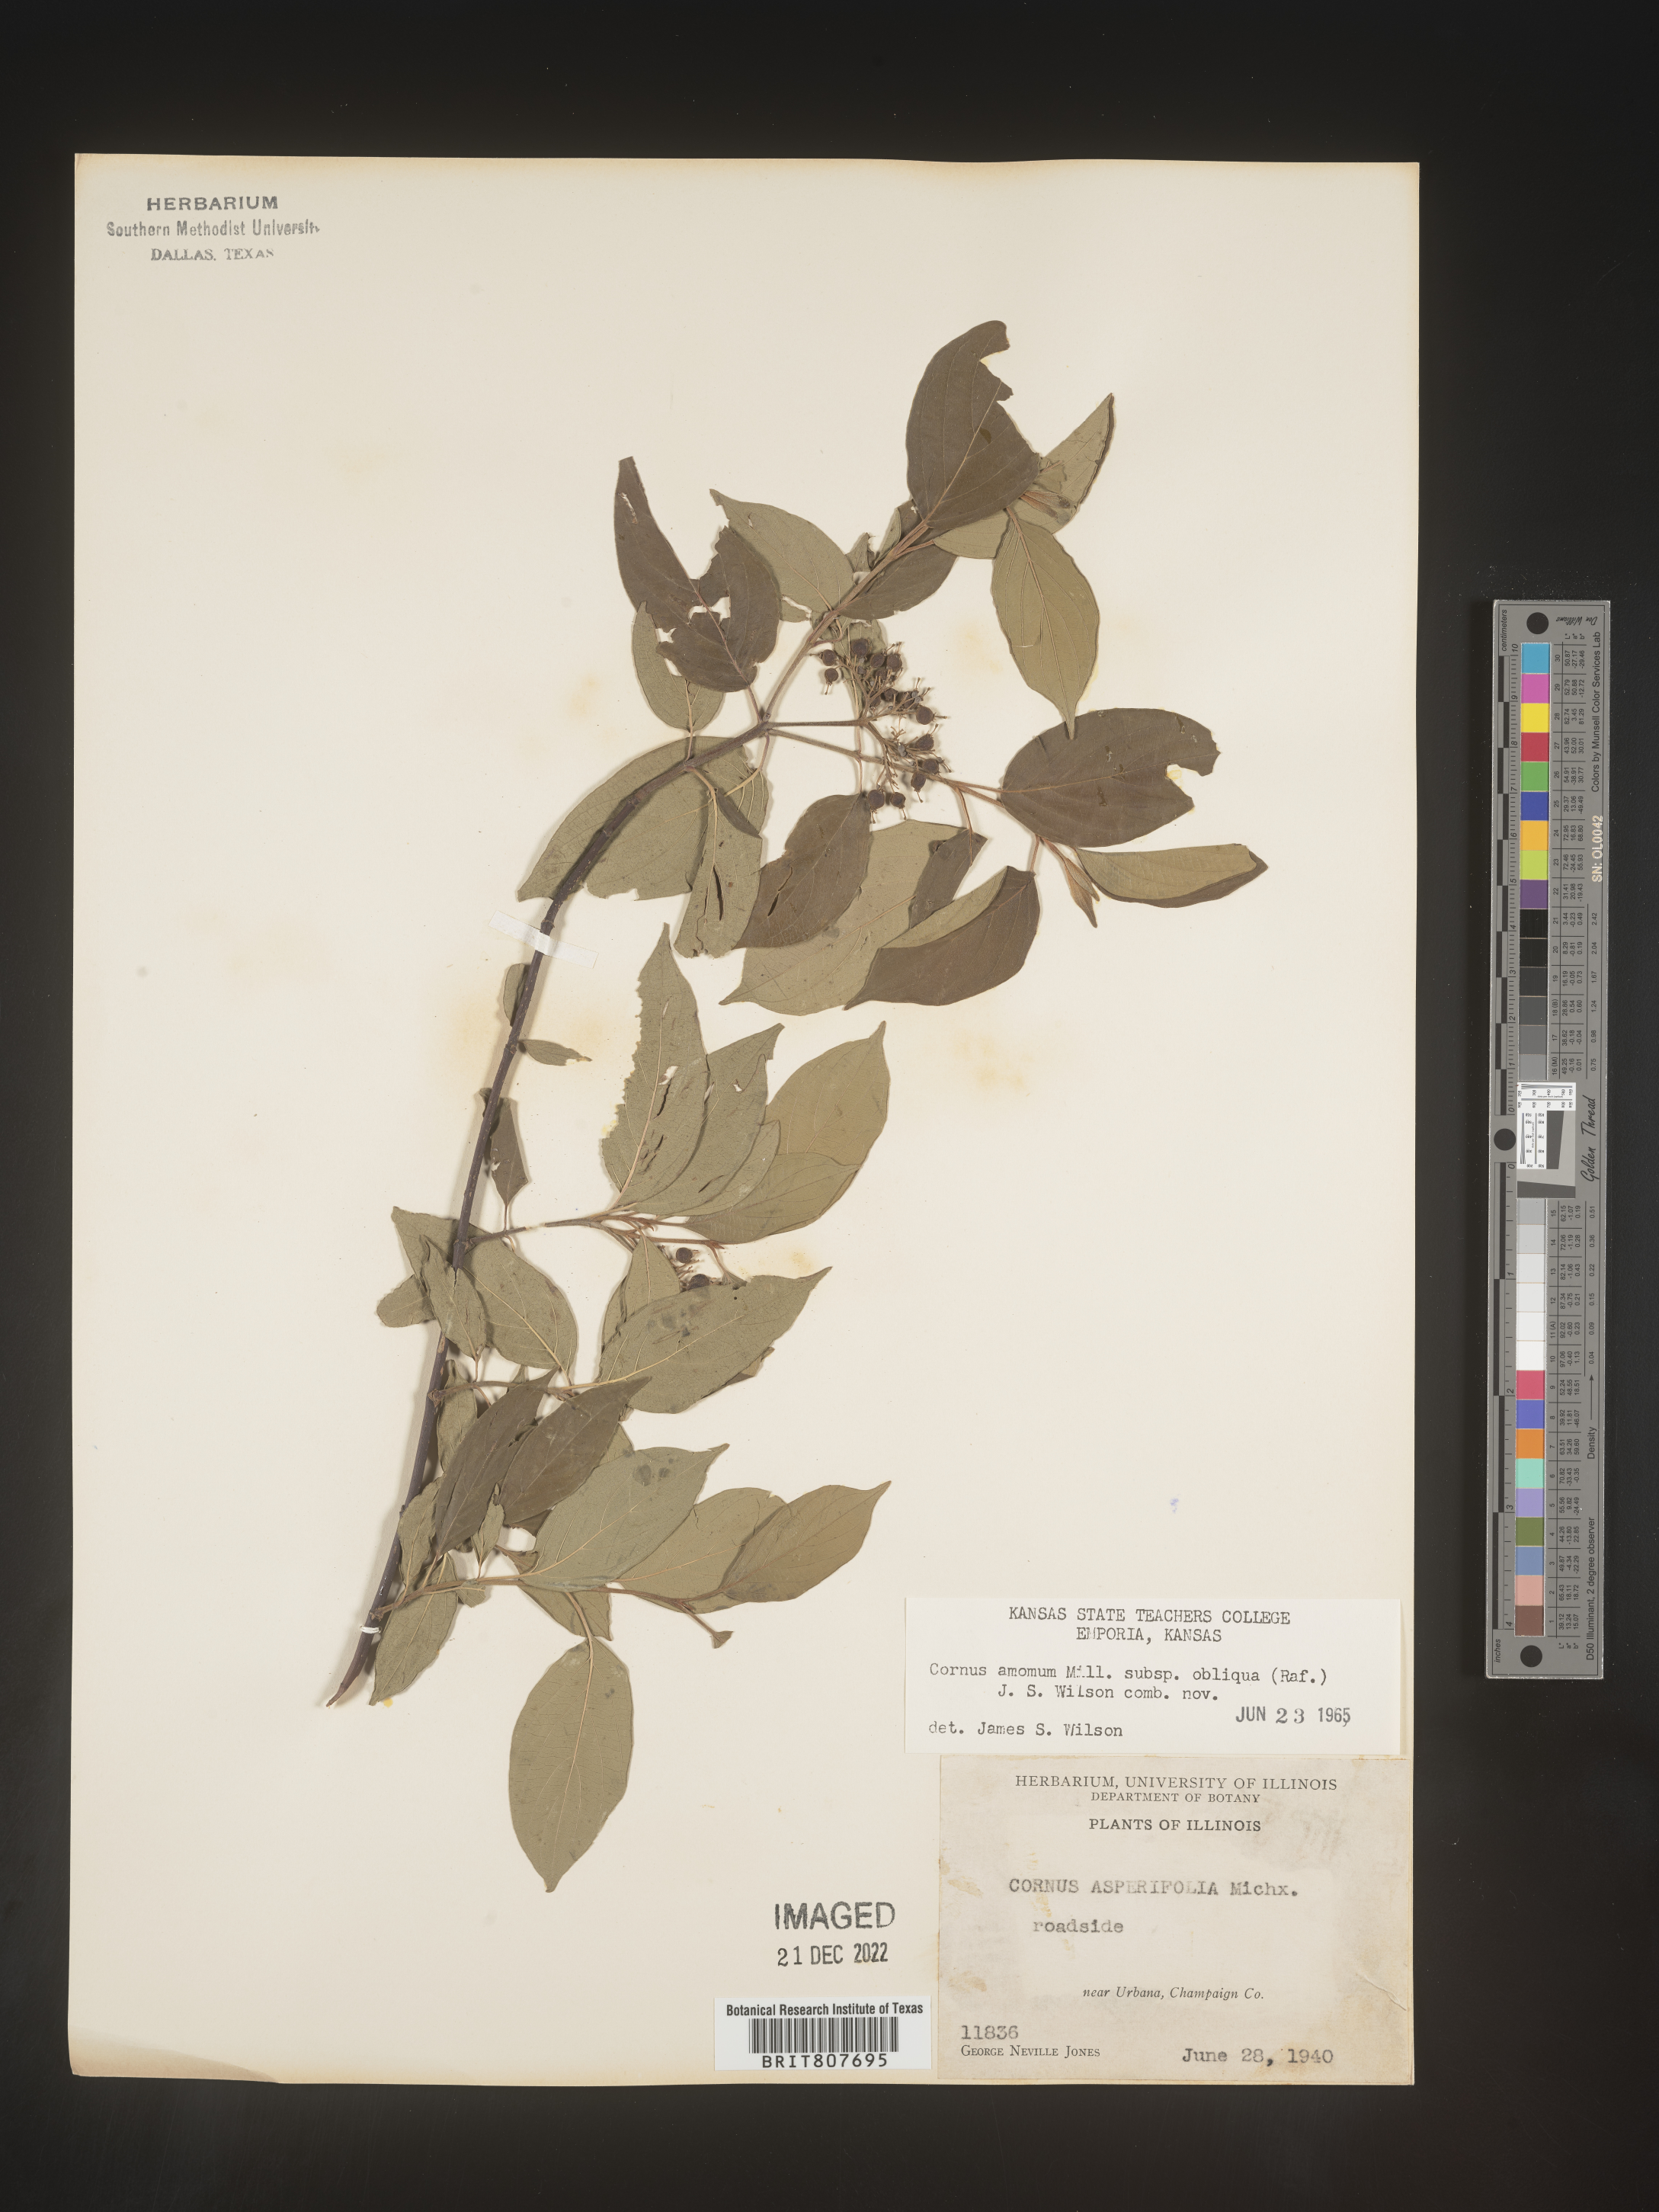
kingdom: Plantae
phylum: Tracheophyta
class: Magnoliopsida
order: Cornales
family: Cornaceae
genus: Cornus
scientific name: Cornus obliqua
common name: Pale dogwood
